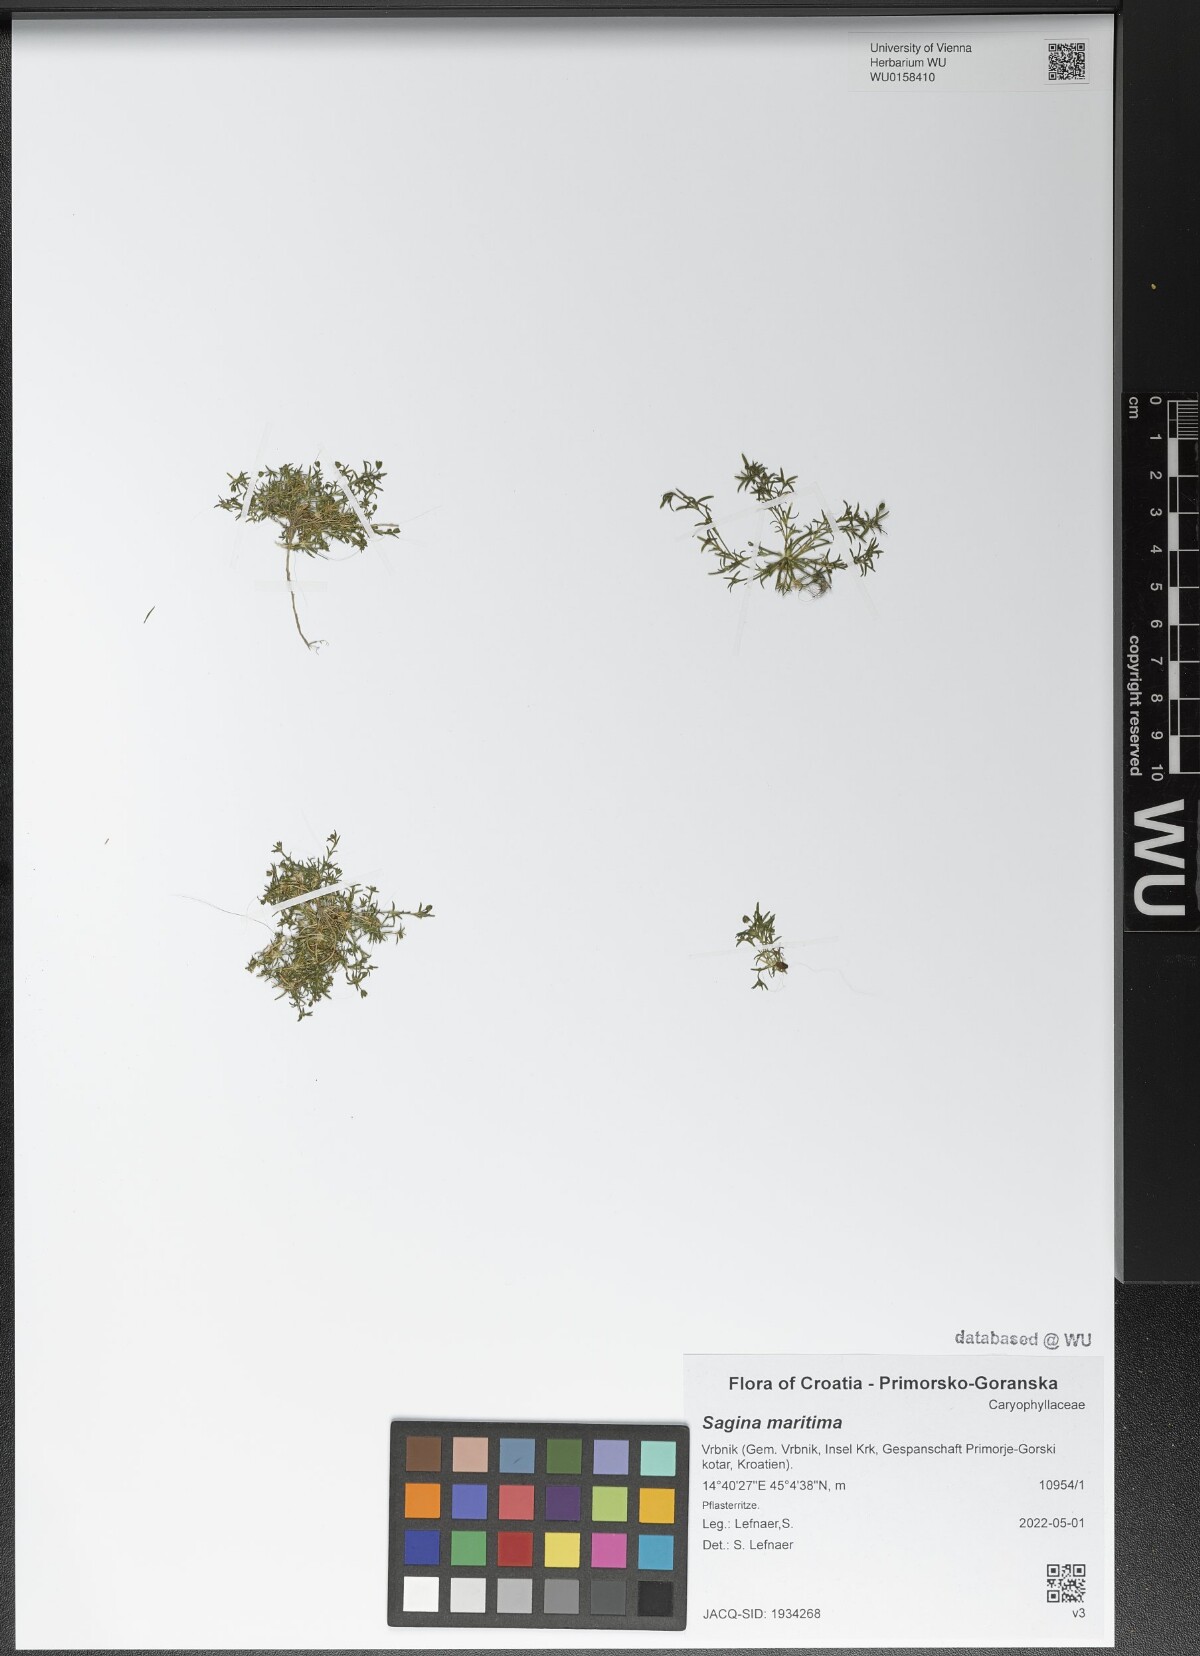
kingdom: Plantae
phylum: Tracheophyta
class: Magnoliopsida
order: Caryophyllales
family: Caryophyllaceae
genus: Sagina
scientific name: Sagina maritima
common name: Sea pearlwort
